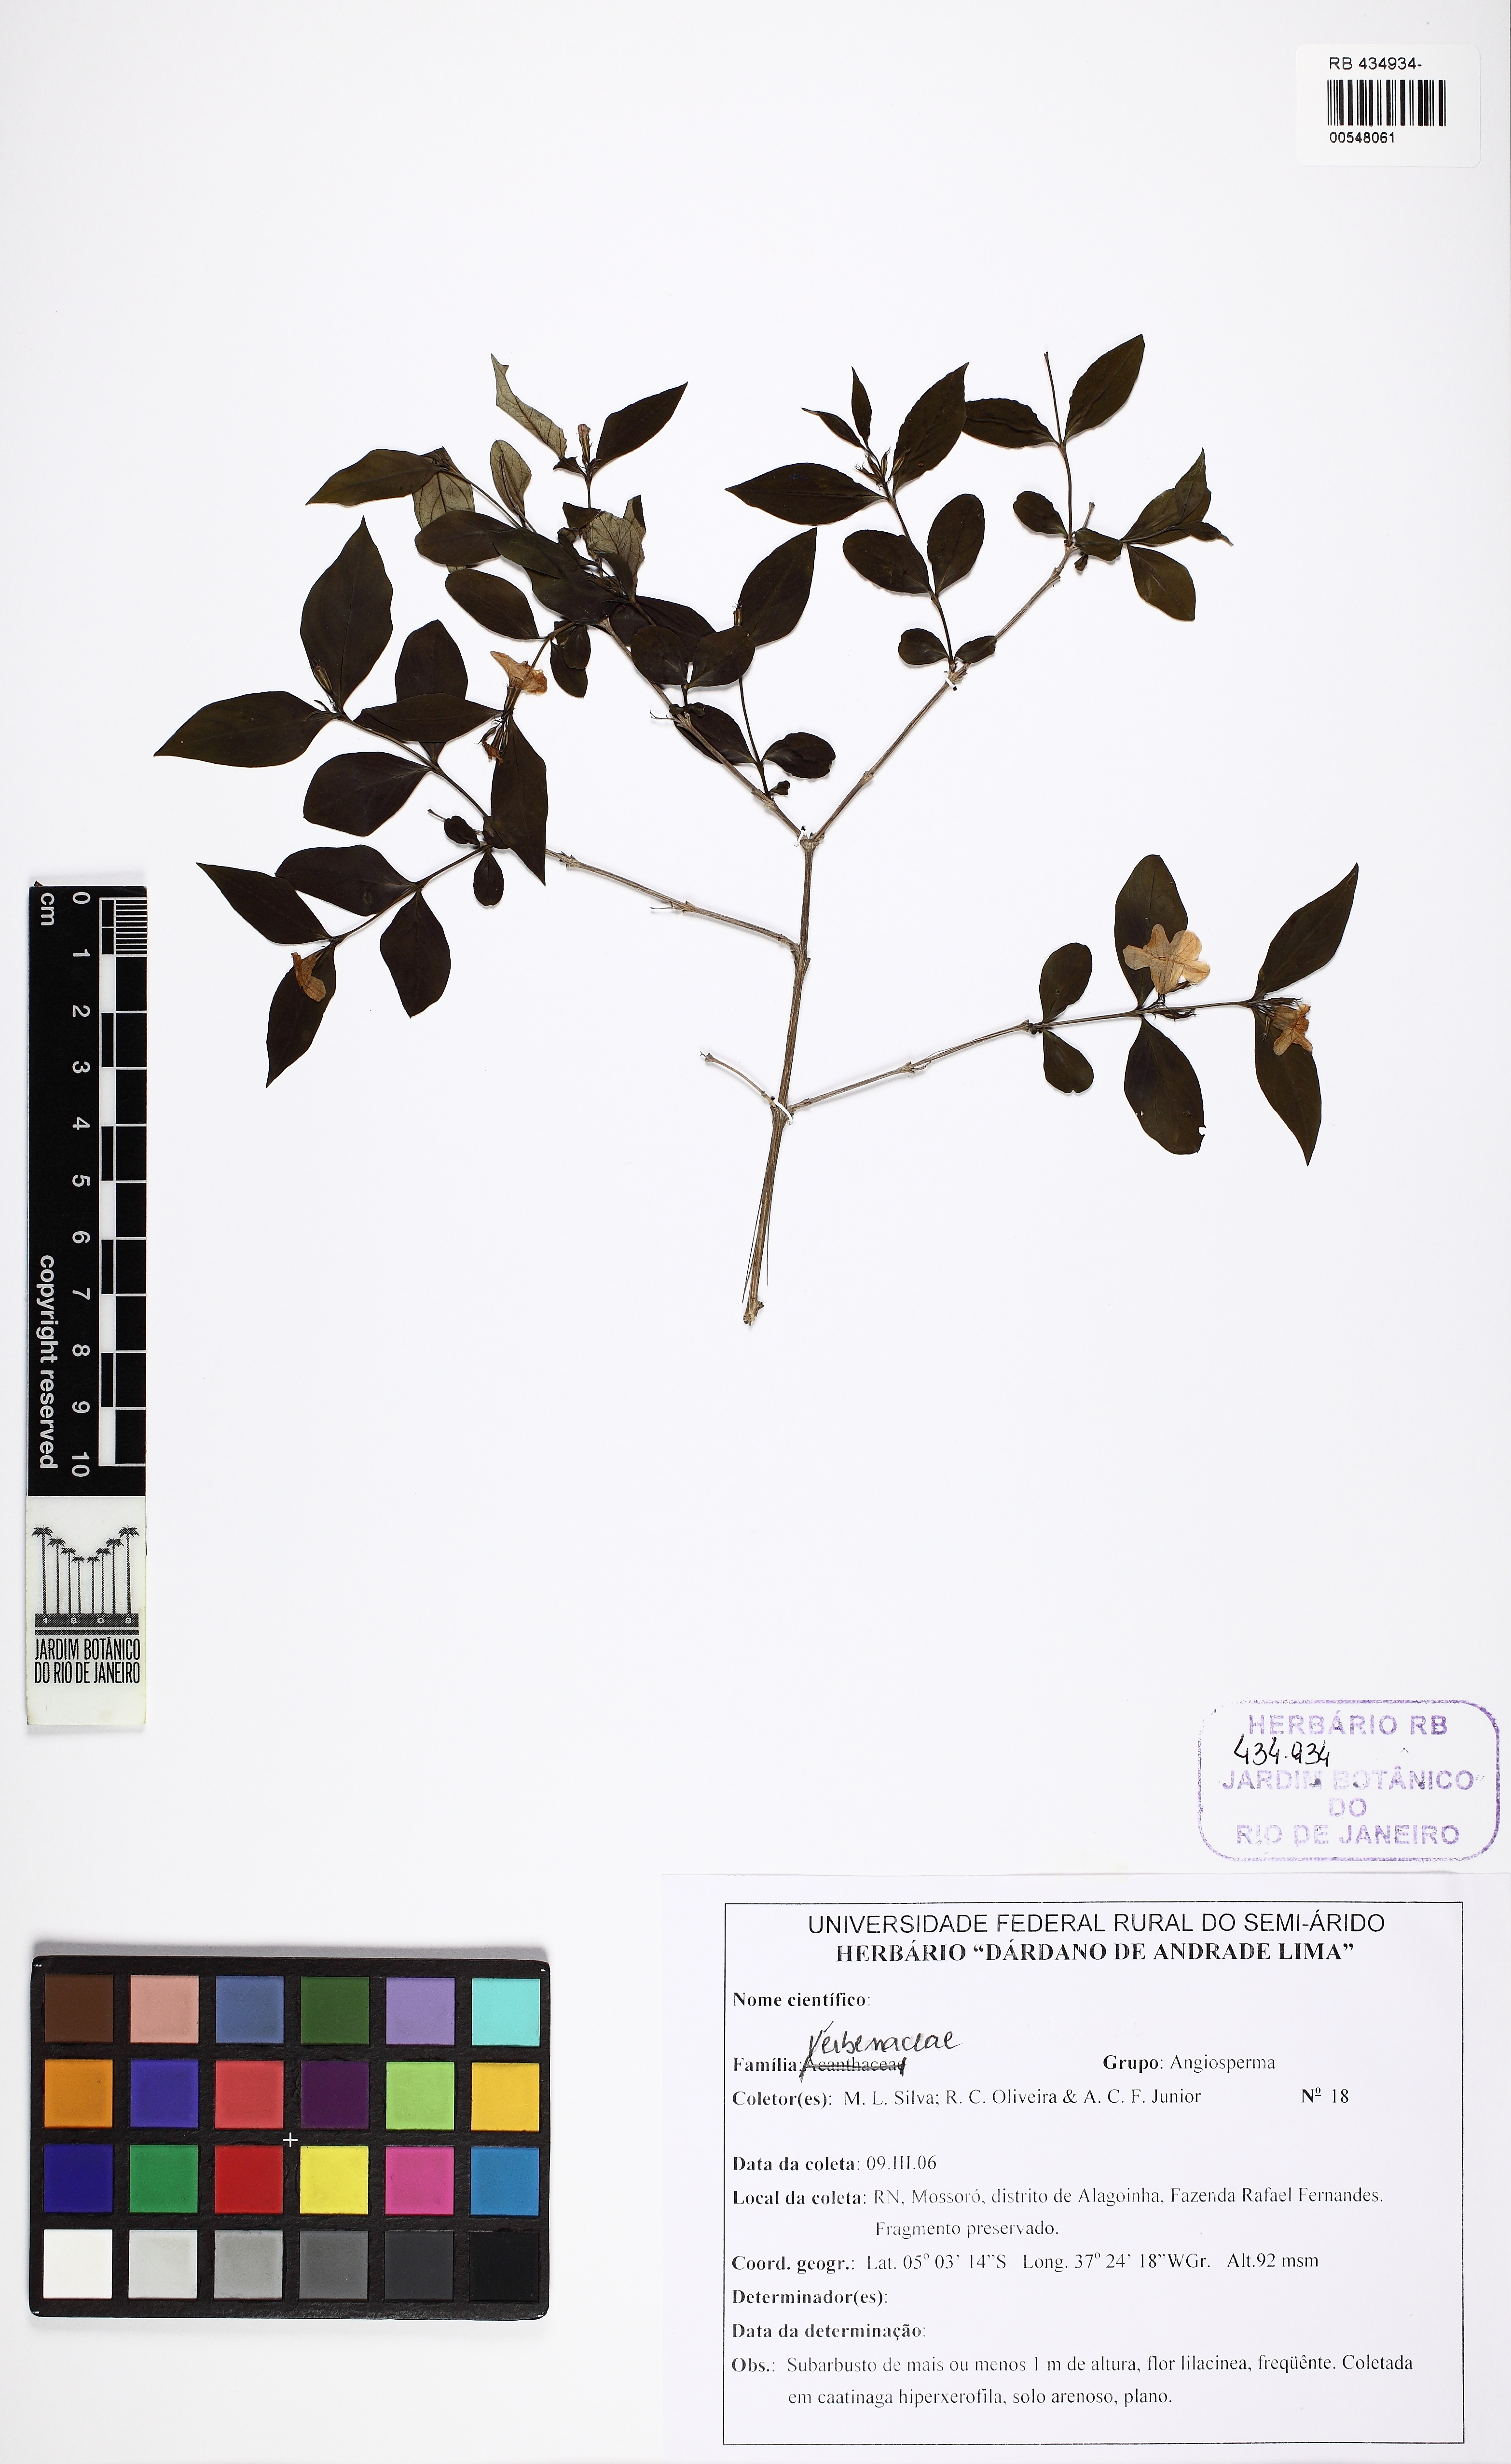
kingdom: Plantae
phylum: Tracheophyta
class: Magnoliopsida
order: Lamiales
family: Verbenaceae
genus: Casselia
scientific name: Casselia
